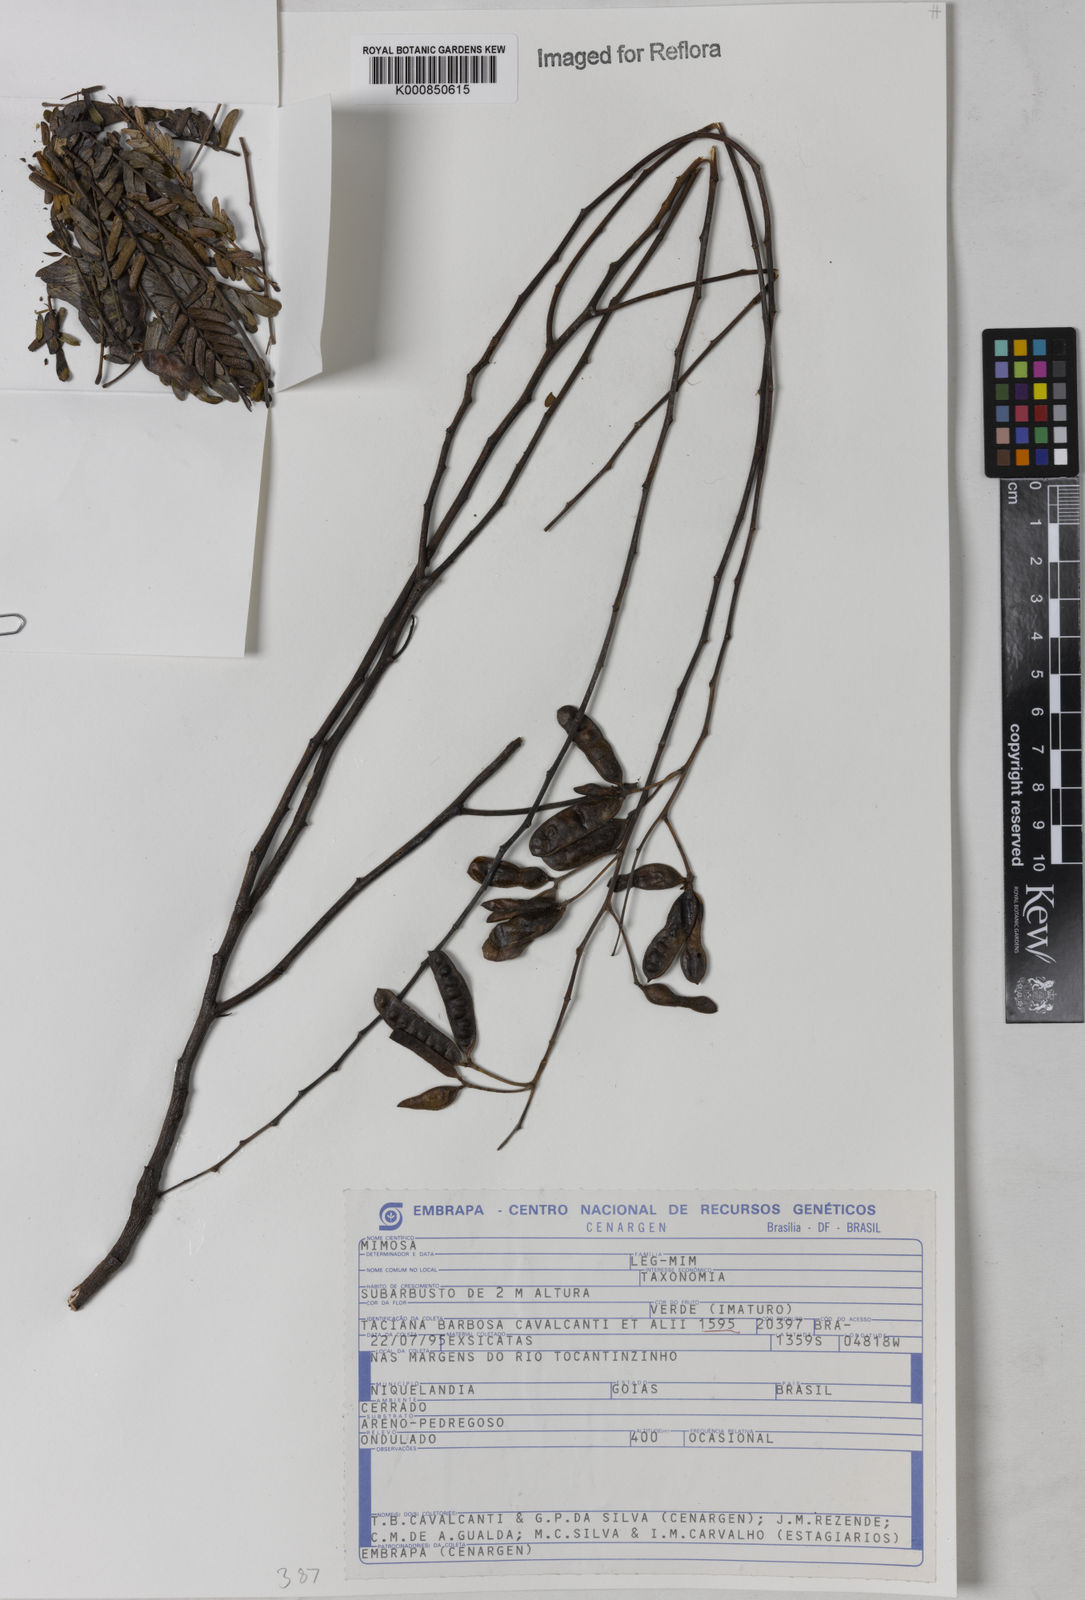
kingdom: Plantae
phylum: Tracheophyta
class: Magnoliopsida
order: Fabales
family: Fabaceae
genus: Mimosa
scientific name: Mimosa nitens
